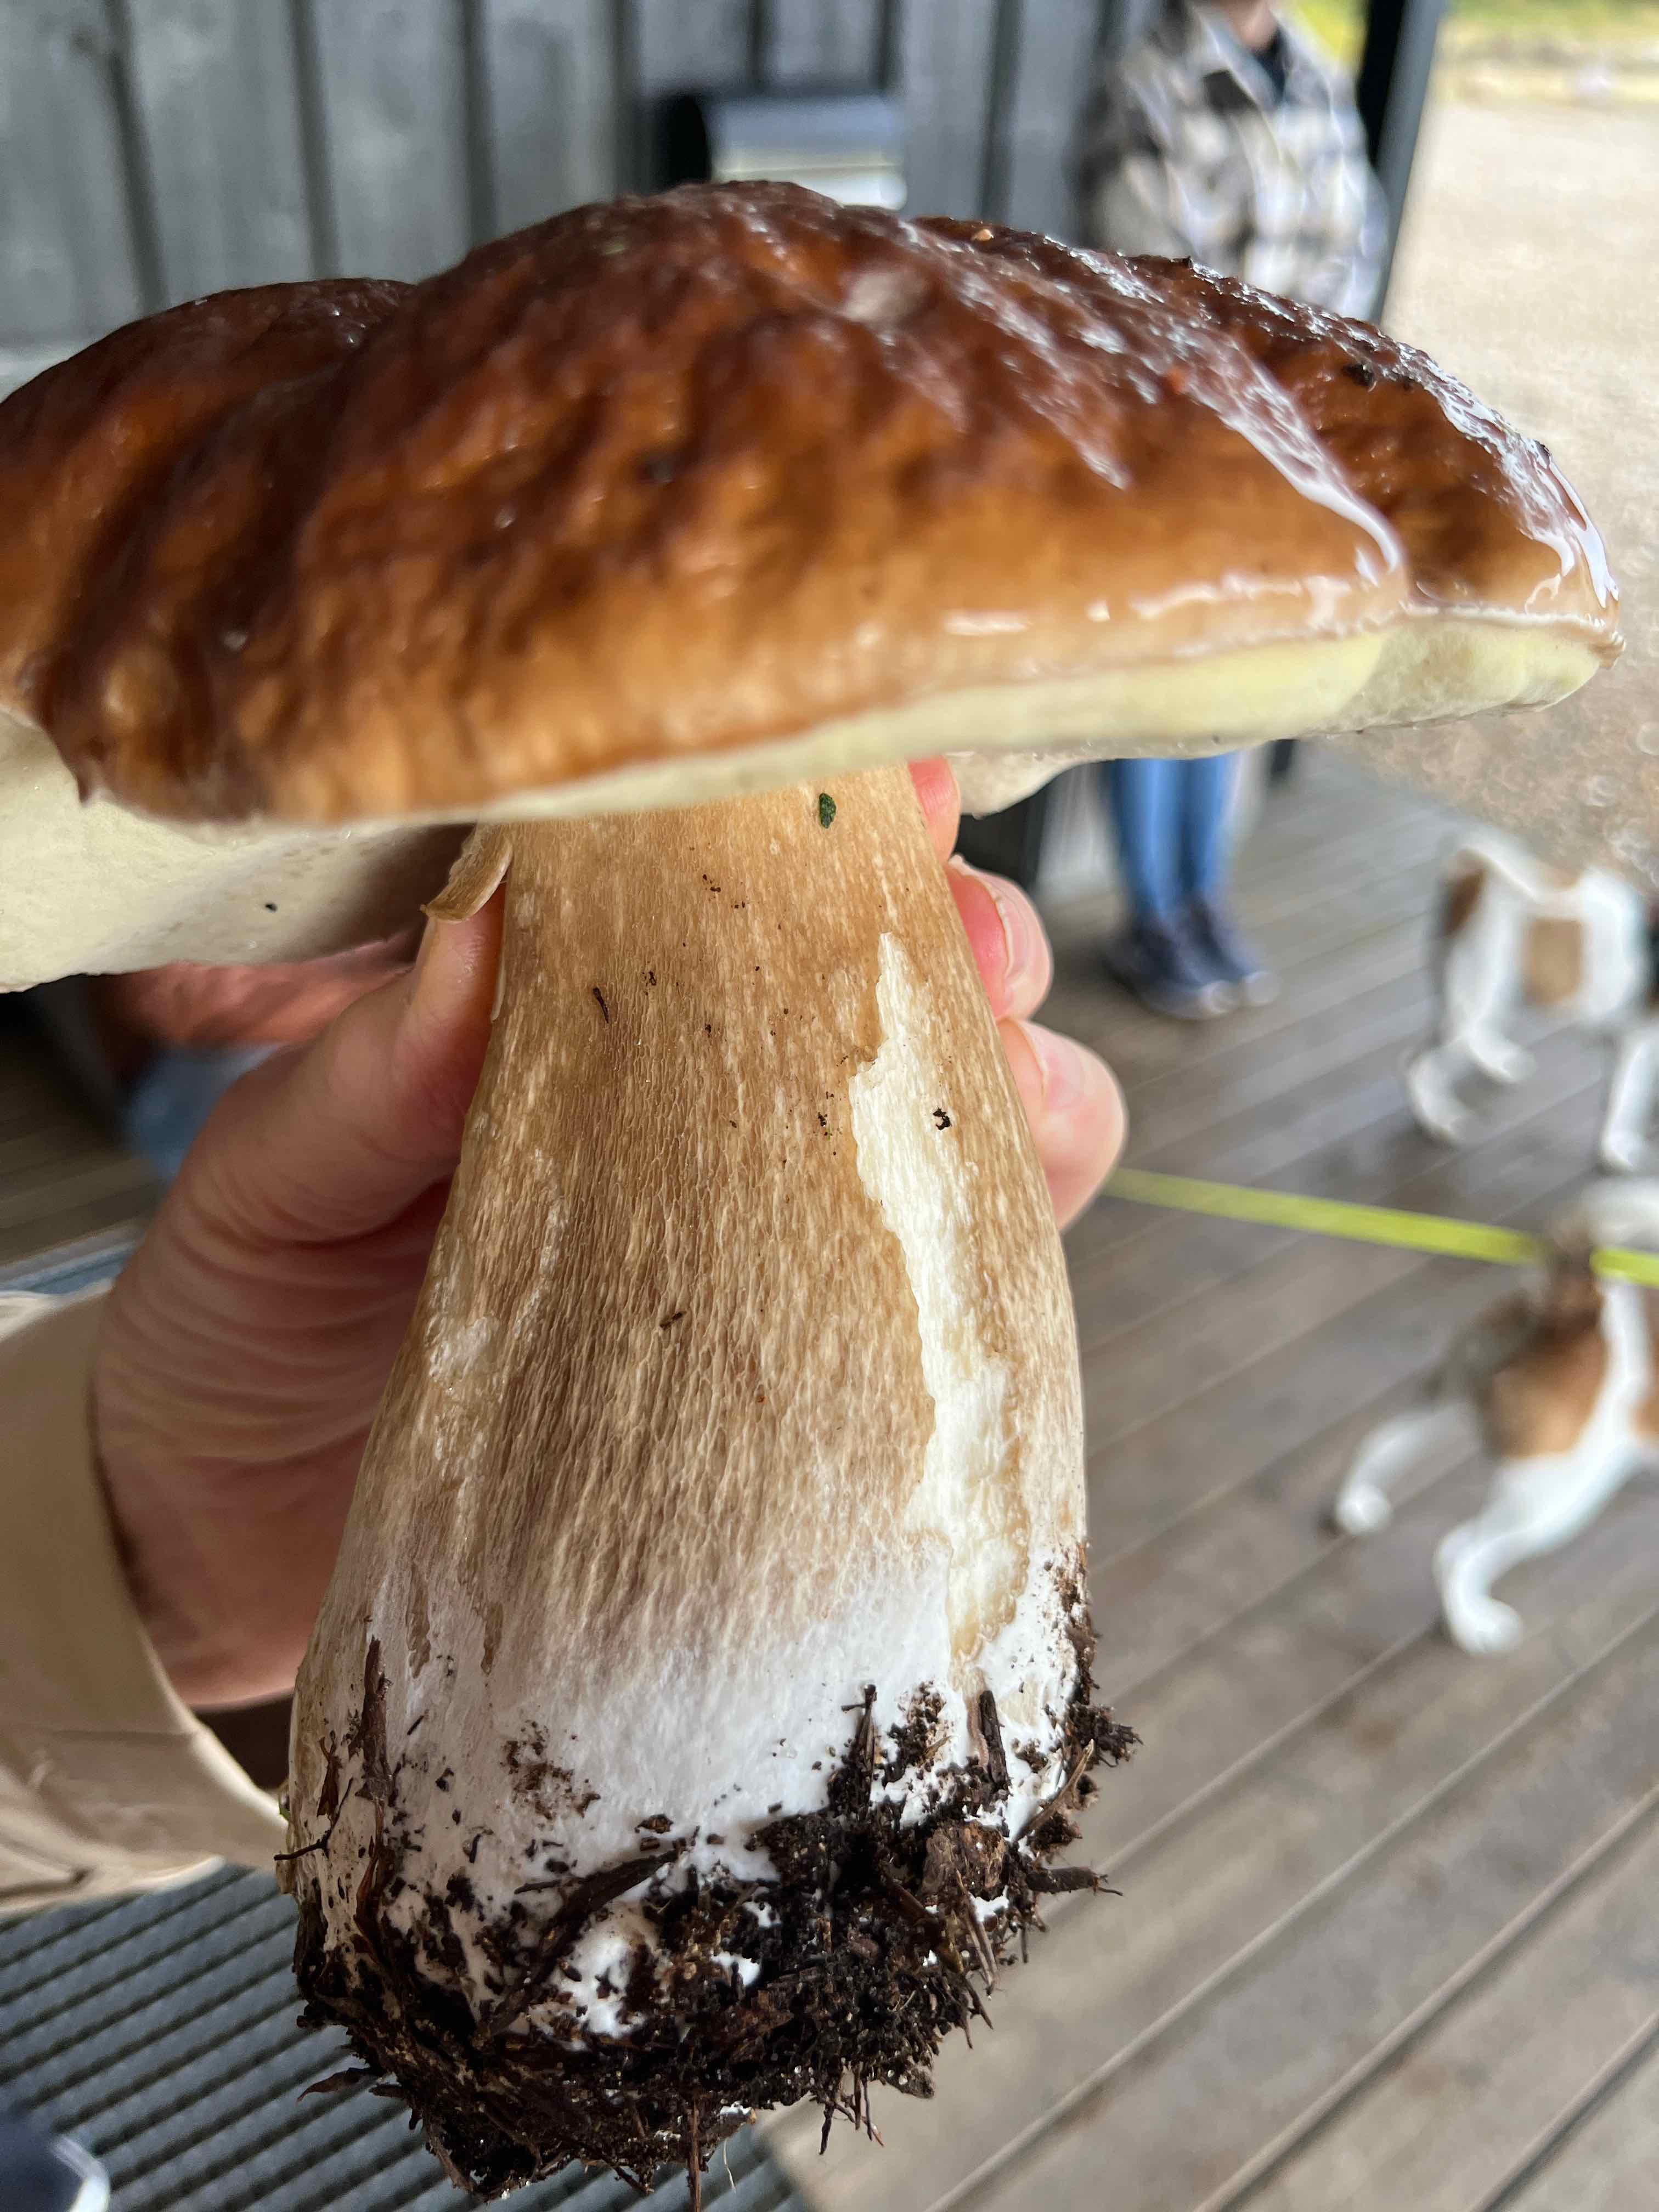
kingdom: Fungi
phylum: Basidiomycota
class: Agaricomycetes
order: Boletales
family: Boletaceae
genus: Boletus
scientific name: Boletus edulis
